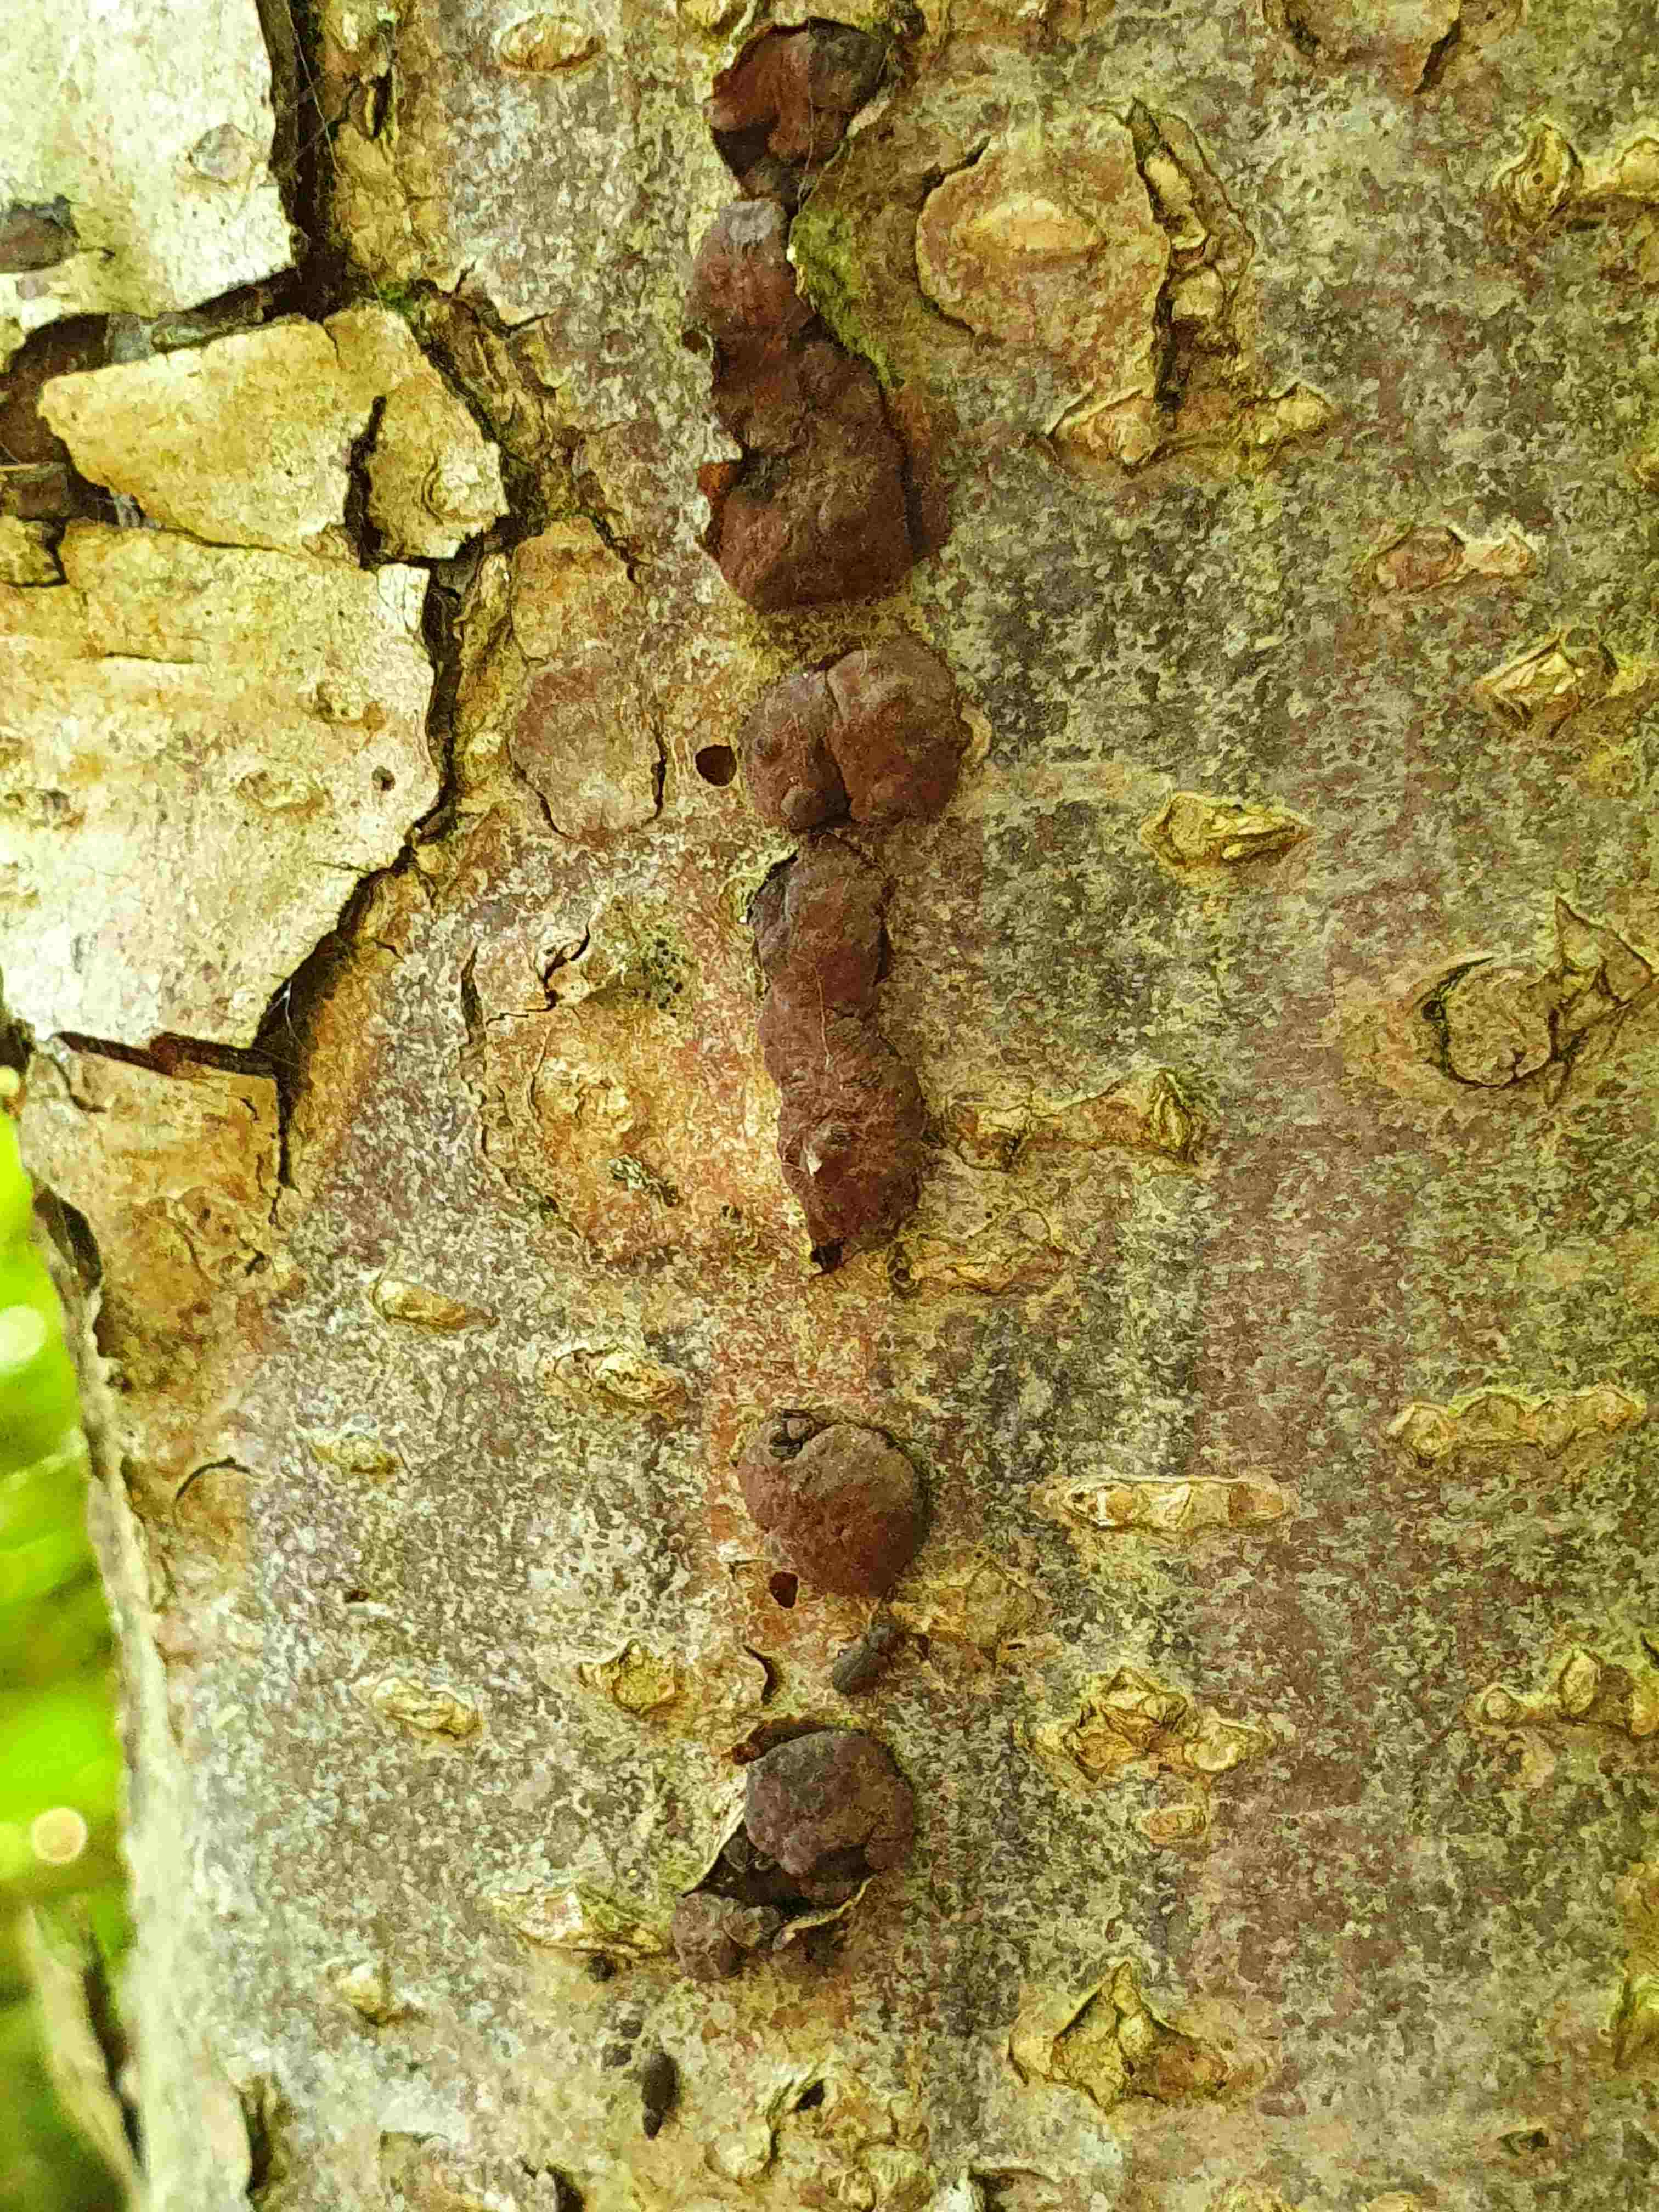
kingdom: Fungi
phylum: Ascomycota
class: Sordariomycetes
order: Xylariales
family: Hypoxylaceae
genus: Jackrogersella
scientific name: Jackrogersella multiformis
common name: foranderlig kulbær
